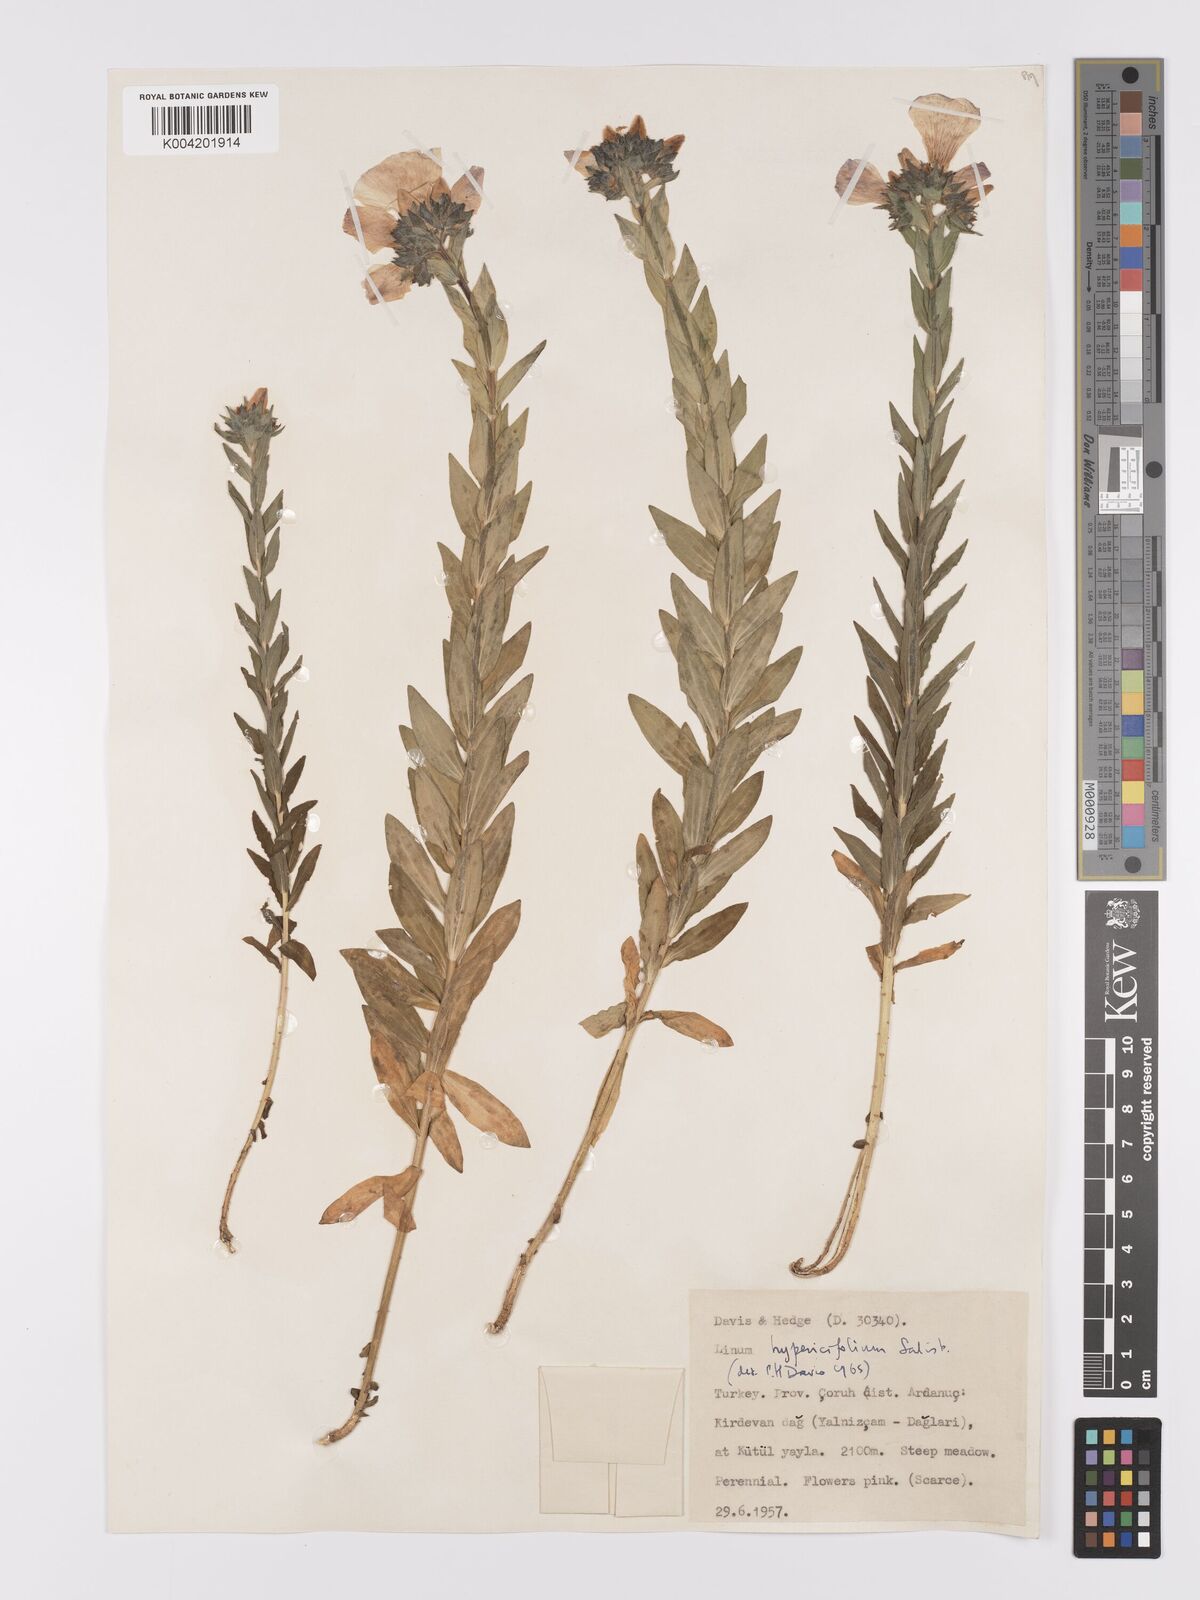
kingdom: Plantae
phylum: Tracheophyta
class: Magnoliopsida
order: Malpighiales
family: Linaceae
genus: Linum
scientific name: Linum
